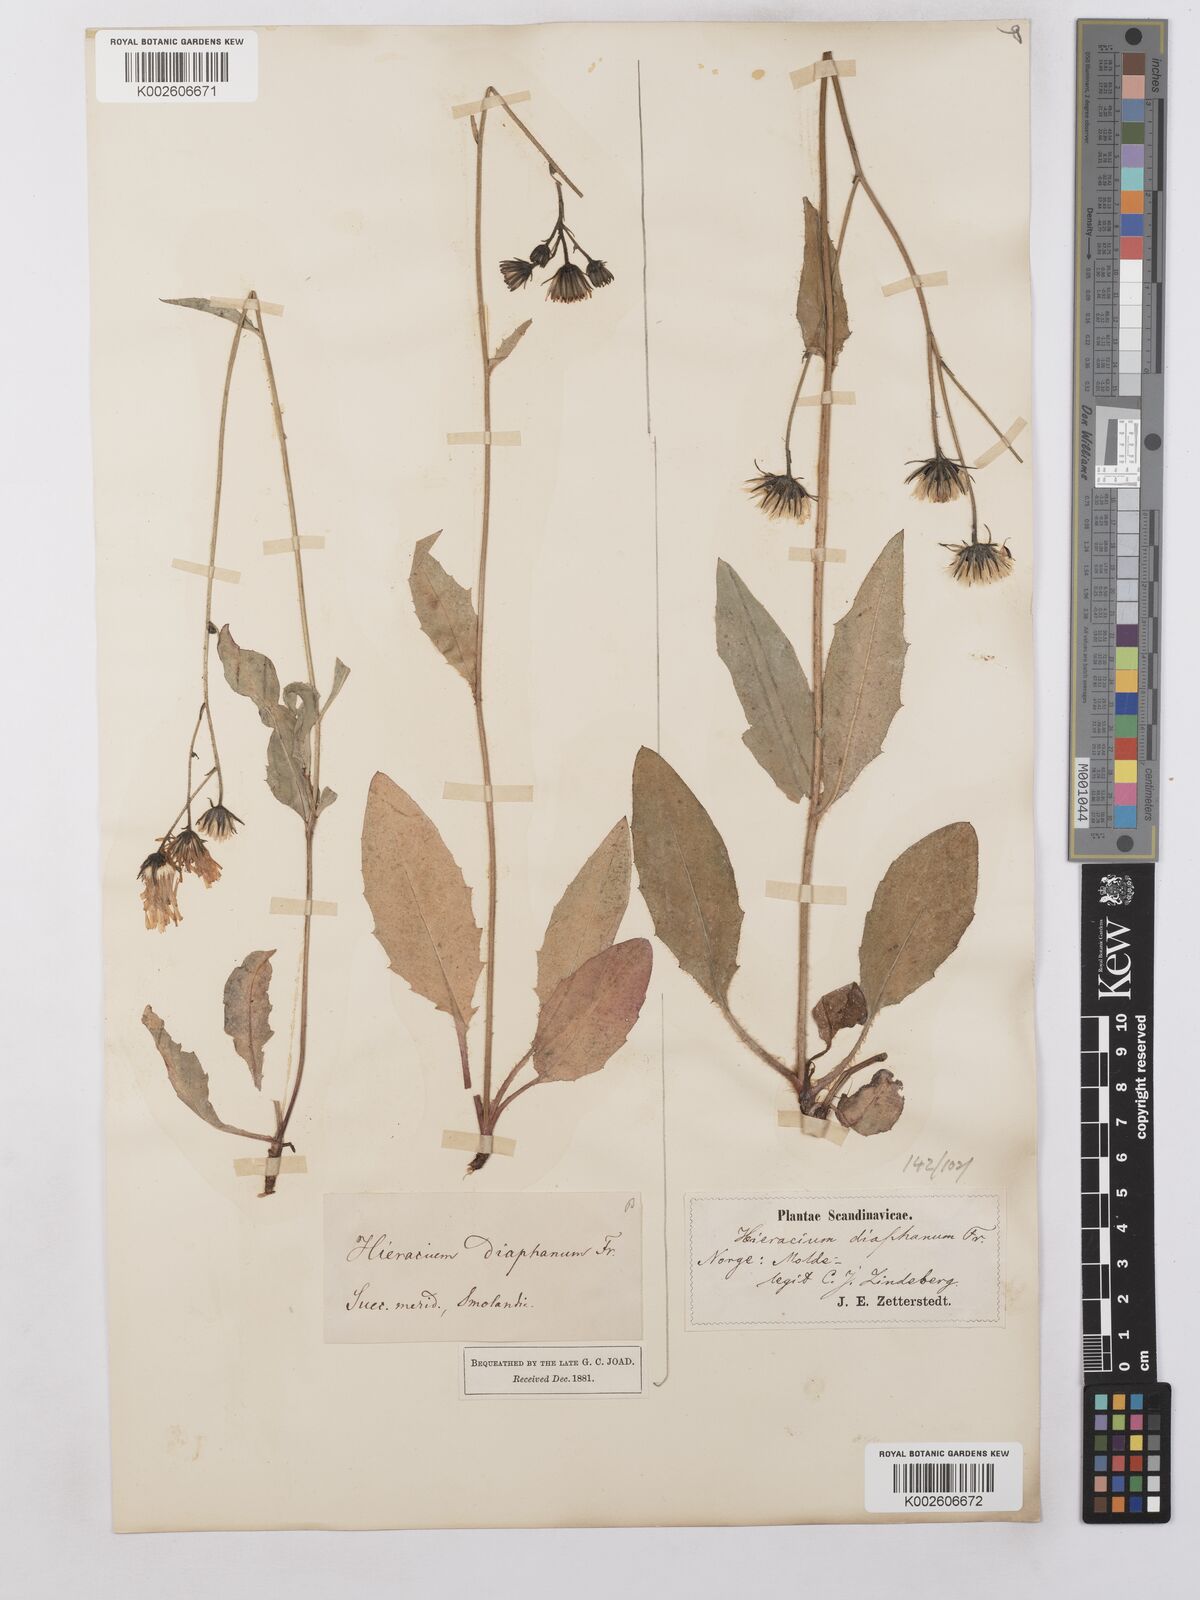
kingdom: Plantae
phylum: Tracheophyta
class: Magnoliopsida
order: Asterales
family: Asteraceae
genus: Hieracium
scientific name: Hieracium lachenalii
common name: Common hawkweed
